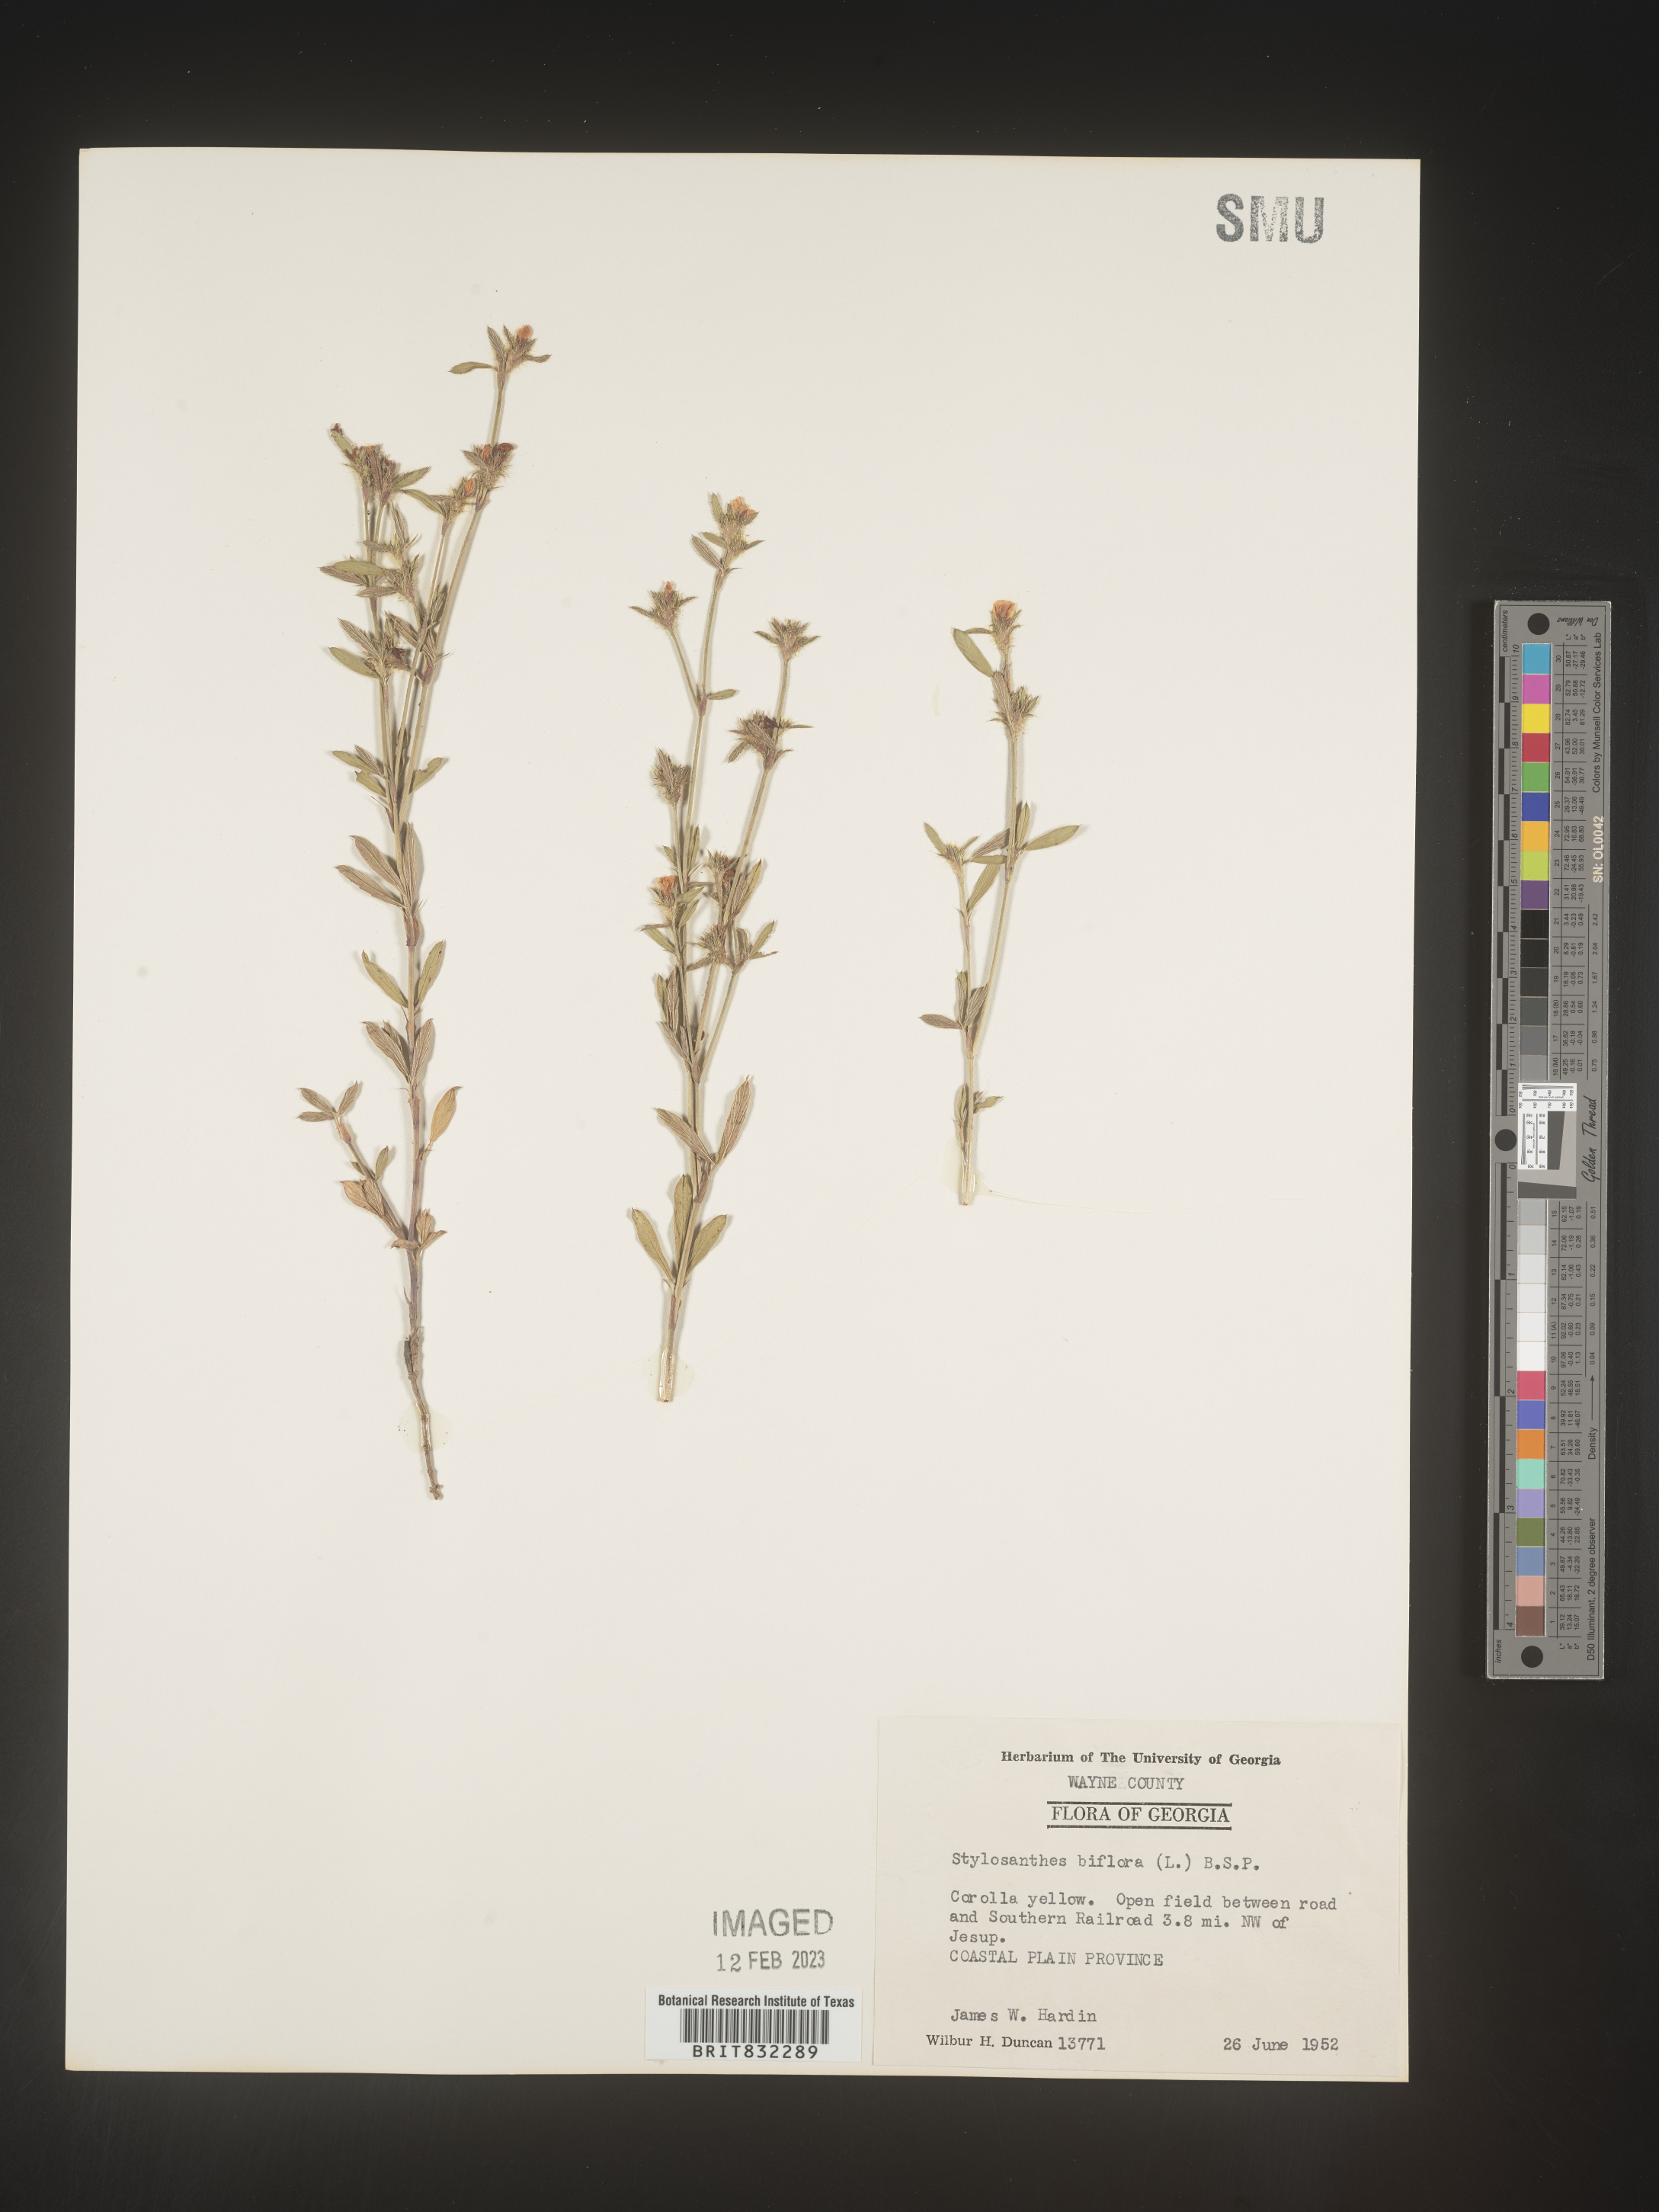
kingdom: Plantae
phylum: Tracheophyta
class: Magnoliopsida
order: Fabales
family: Fabaceae
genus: Stylosanthes
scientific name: Stylosanthes biflora
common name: Two-flower pencil-flower
